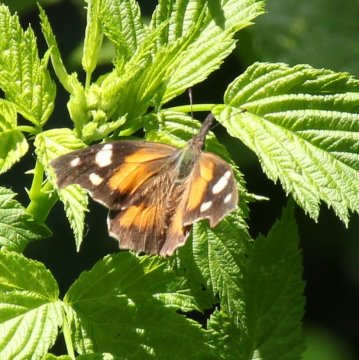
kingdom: Animalia
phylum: Arthropoda
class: Insecta
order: Lepidoptera
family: Nymphalidae
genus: Libytheana
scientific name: Libytheana carinenta
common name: American Snout
